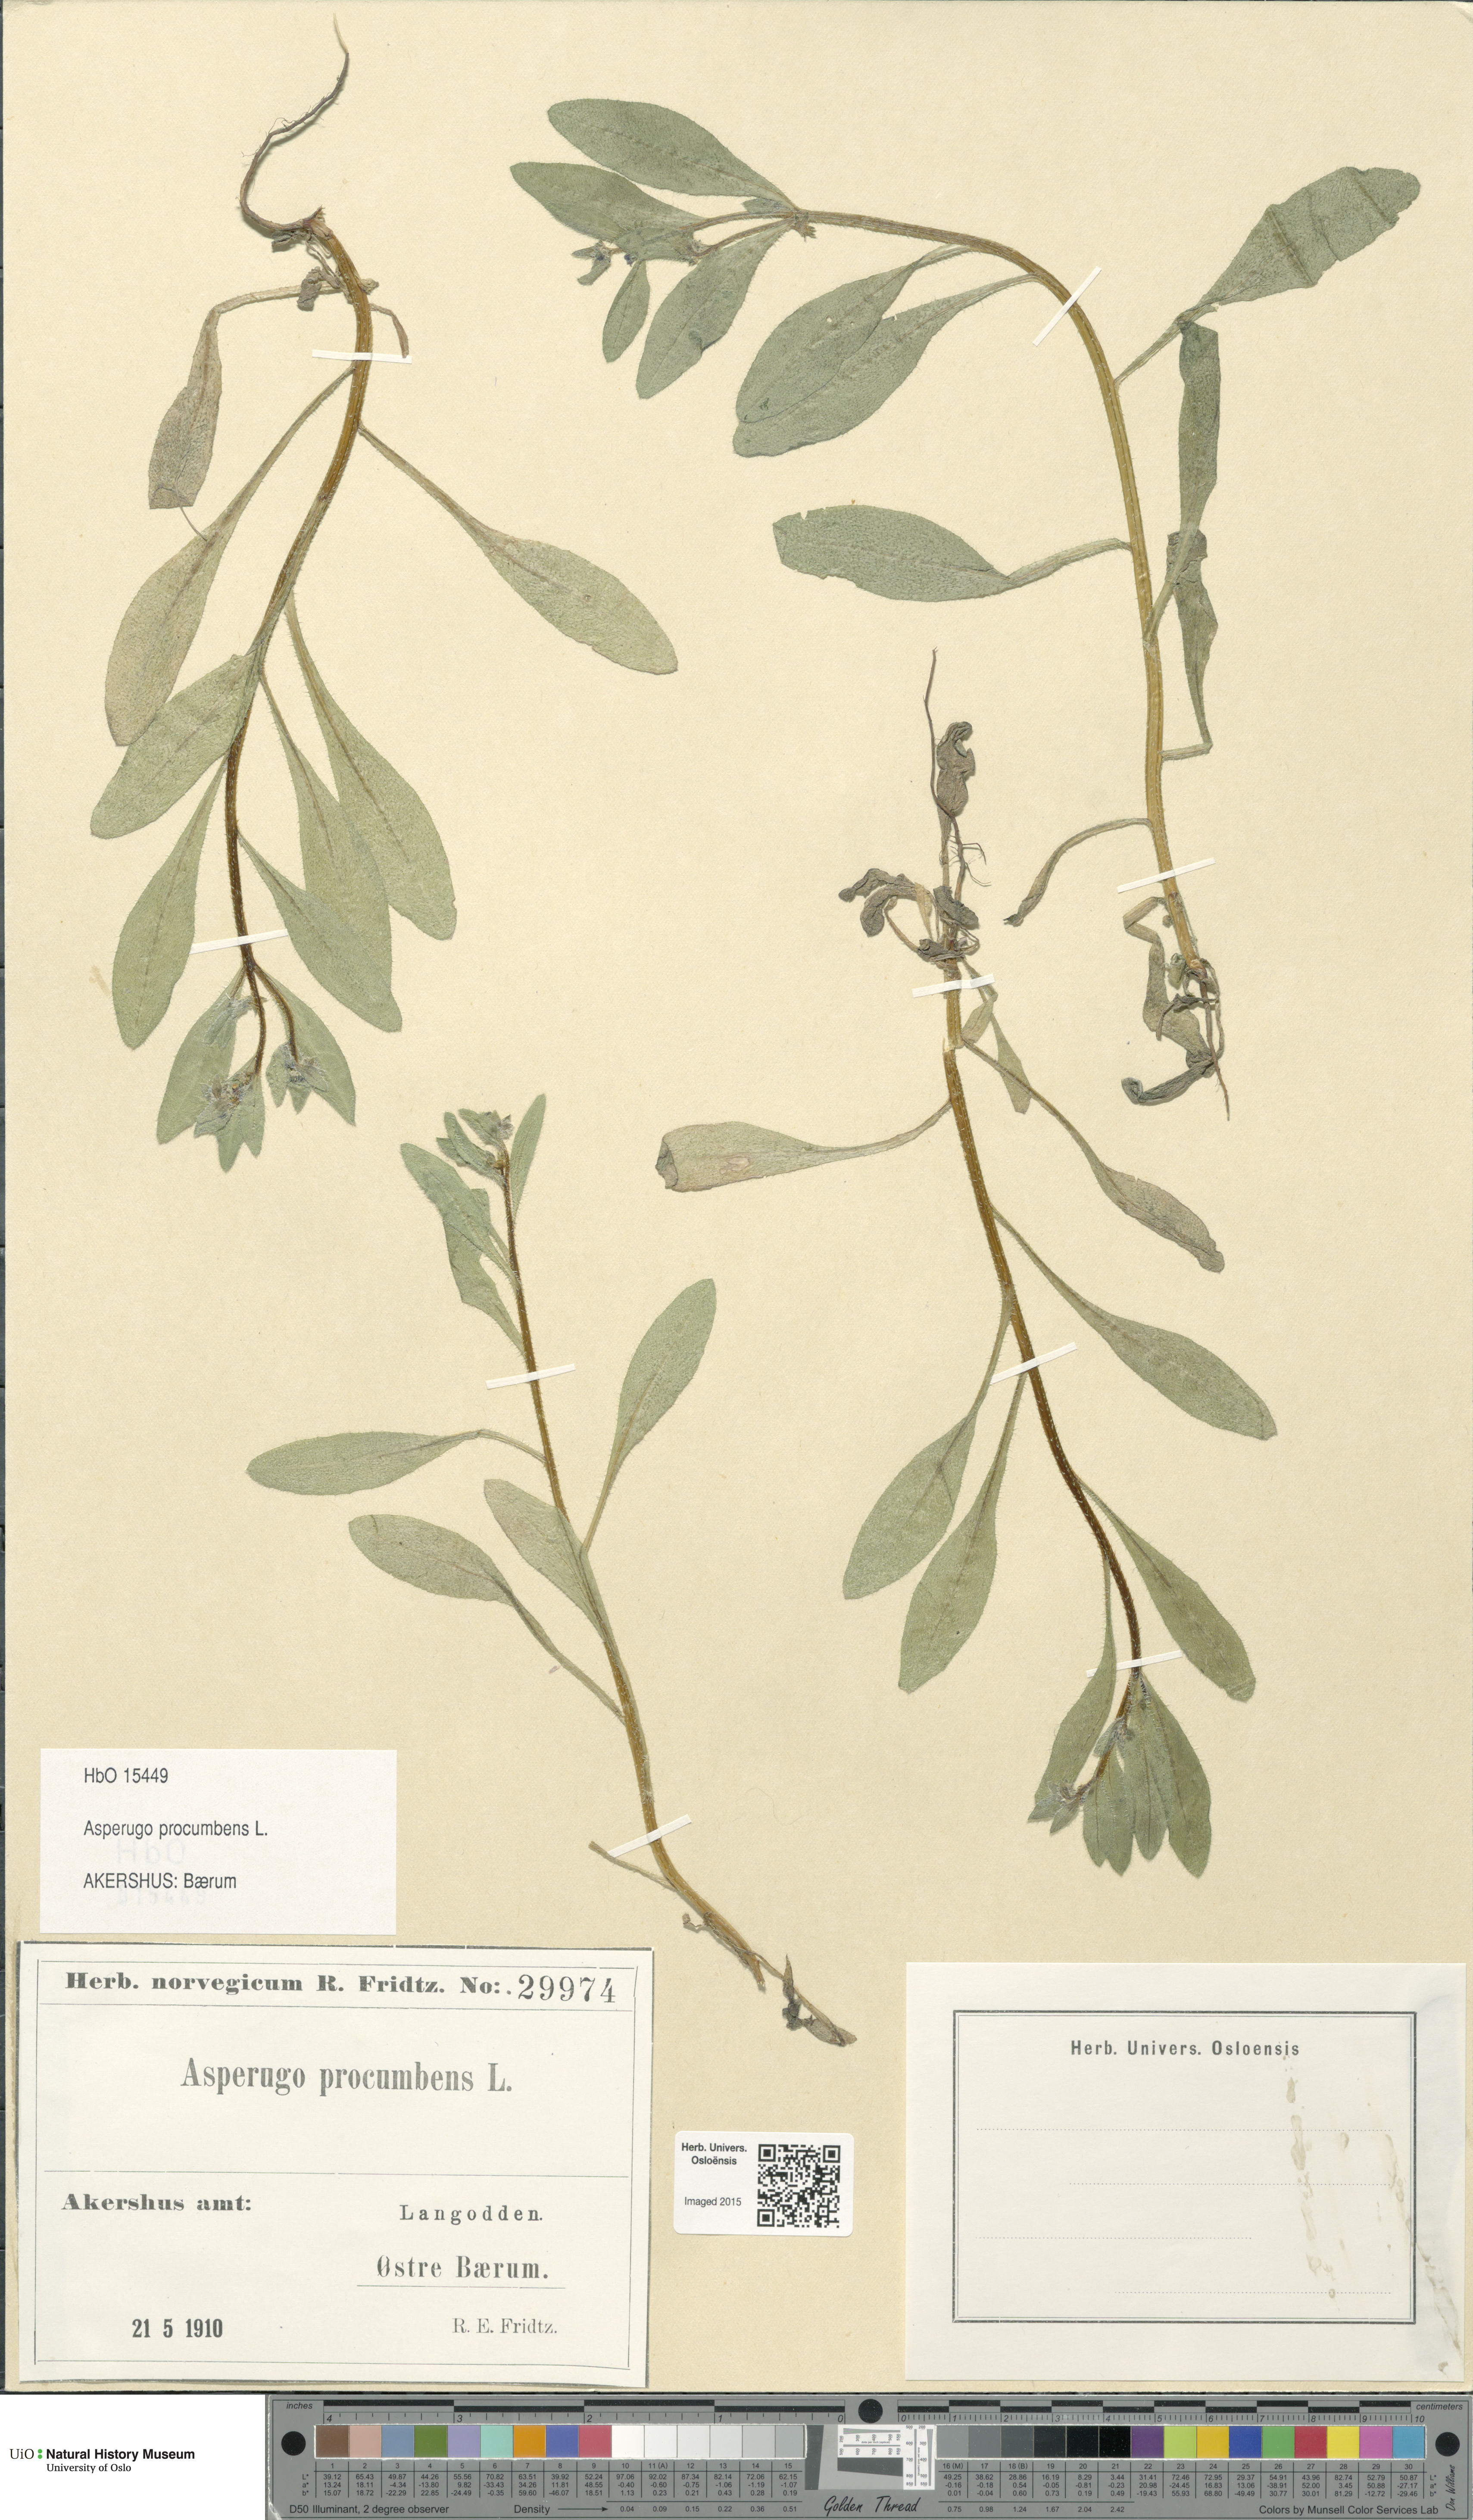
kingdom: Plantae
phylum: Tracheophyta
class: Magnoliopsida
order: Boraginales
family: Boraginaceae
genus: Asperugo
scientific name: Asperugo procumbens
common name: Madwort
